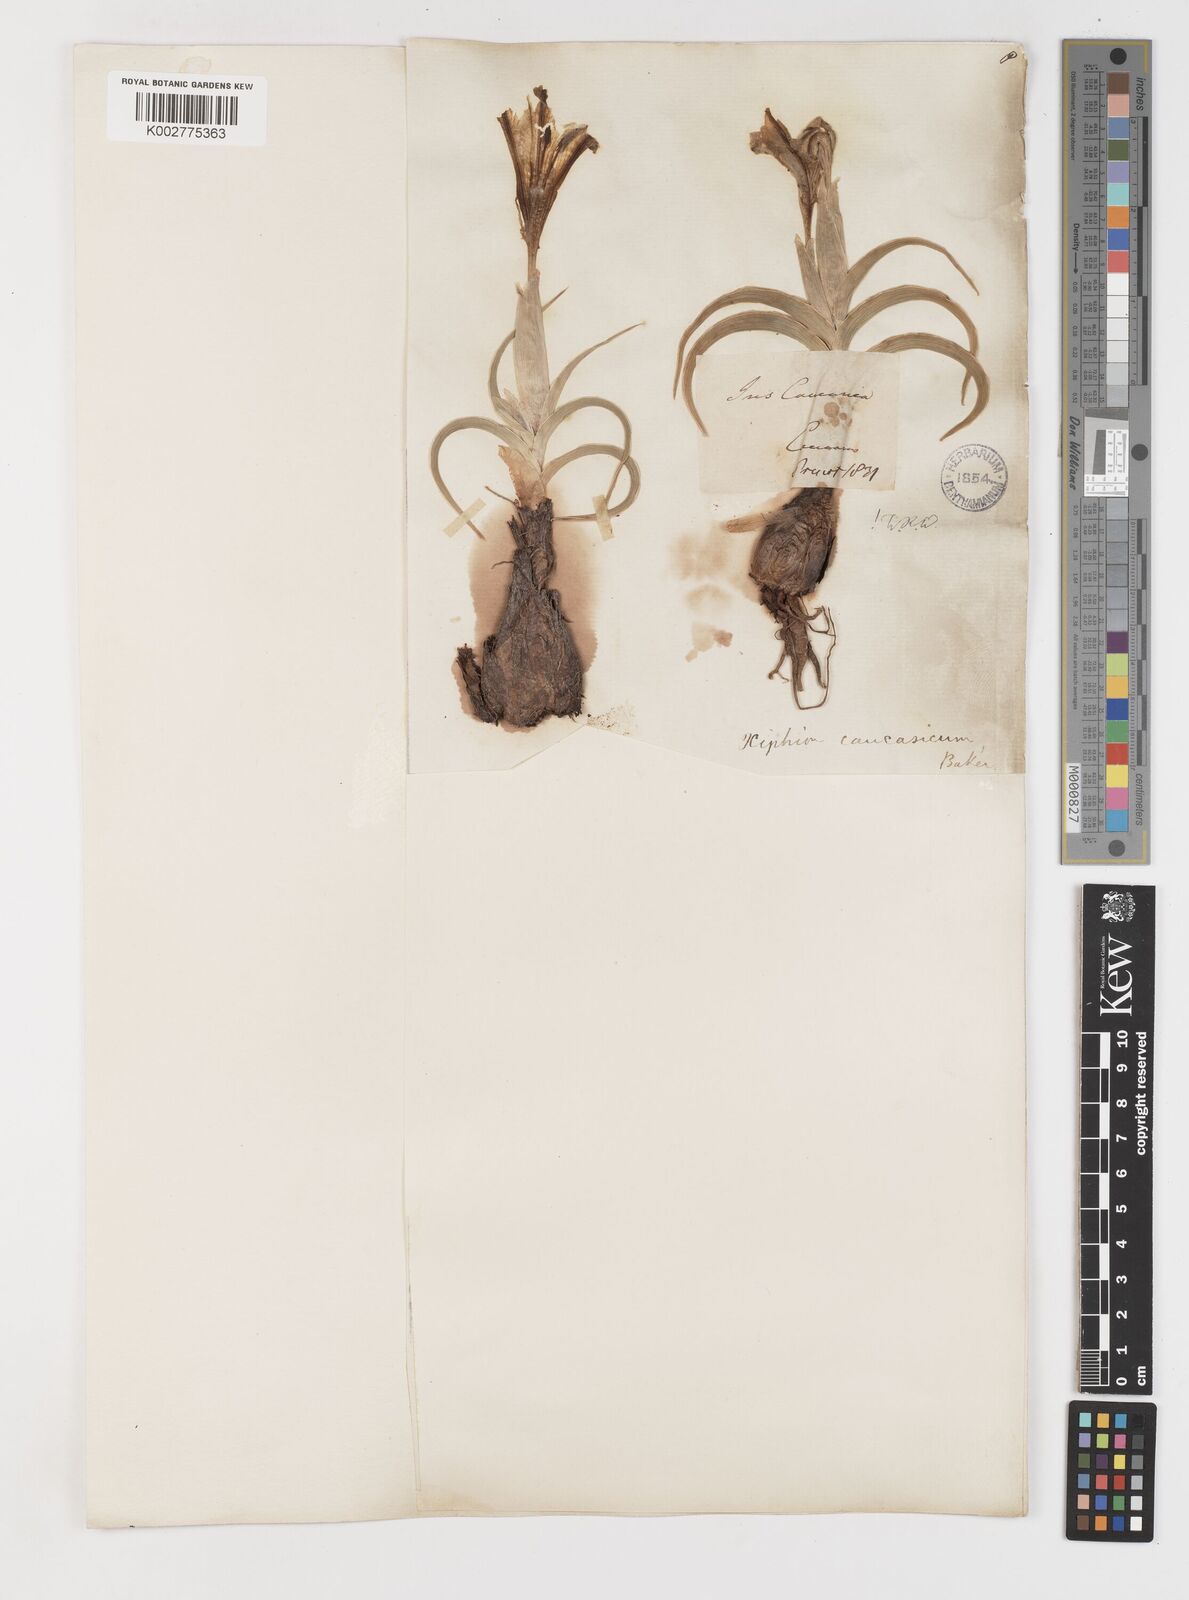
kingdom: Plantae
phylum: Tracheophyta
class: Liliopsida
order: Asparagales
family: Iridaceae
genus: Iris
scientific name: Iris caucasica
